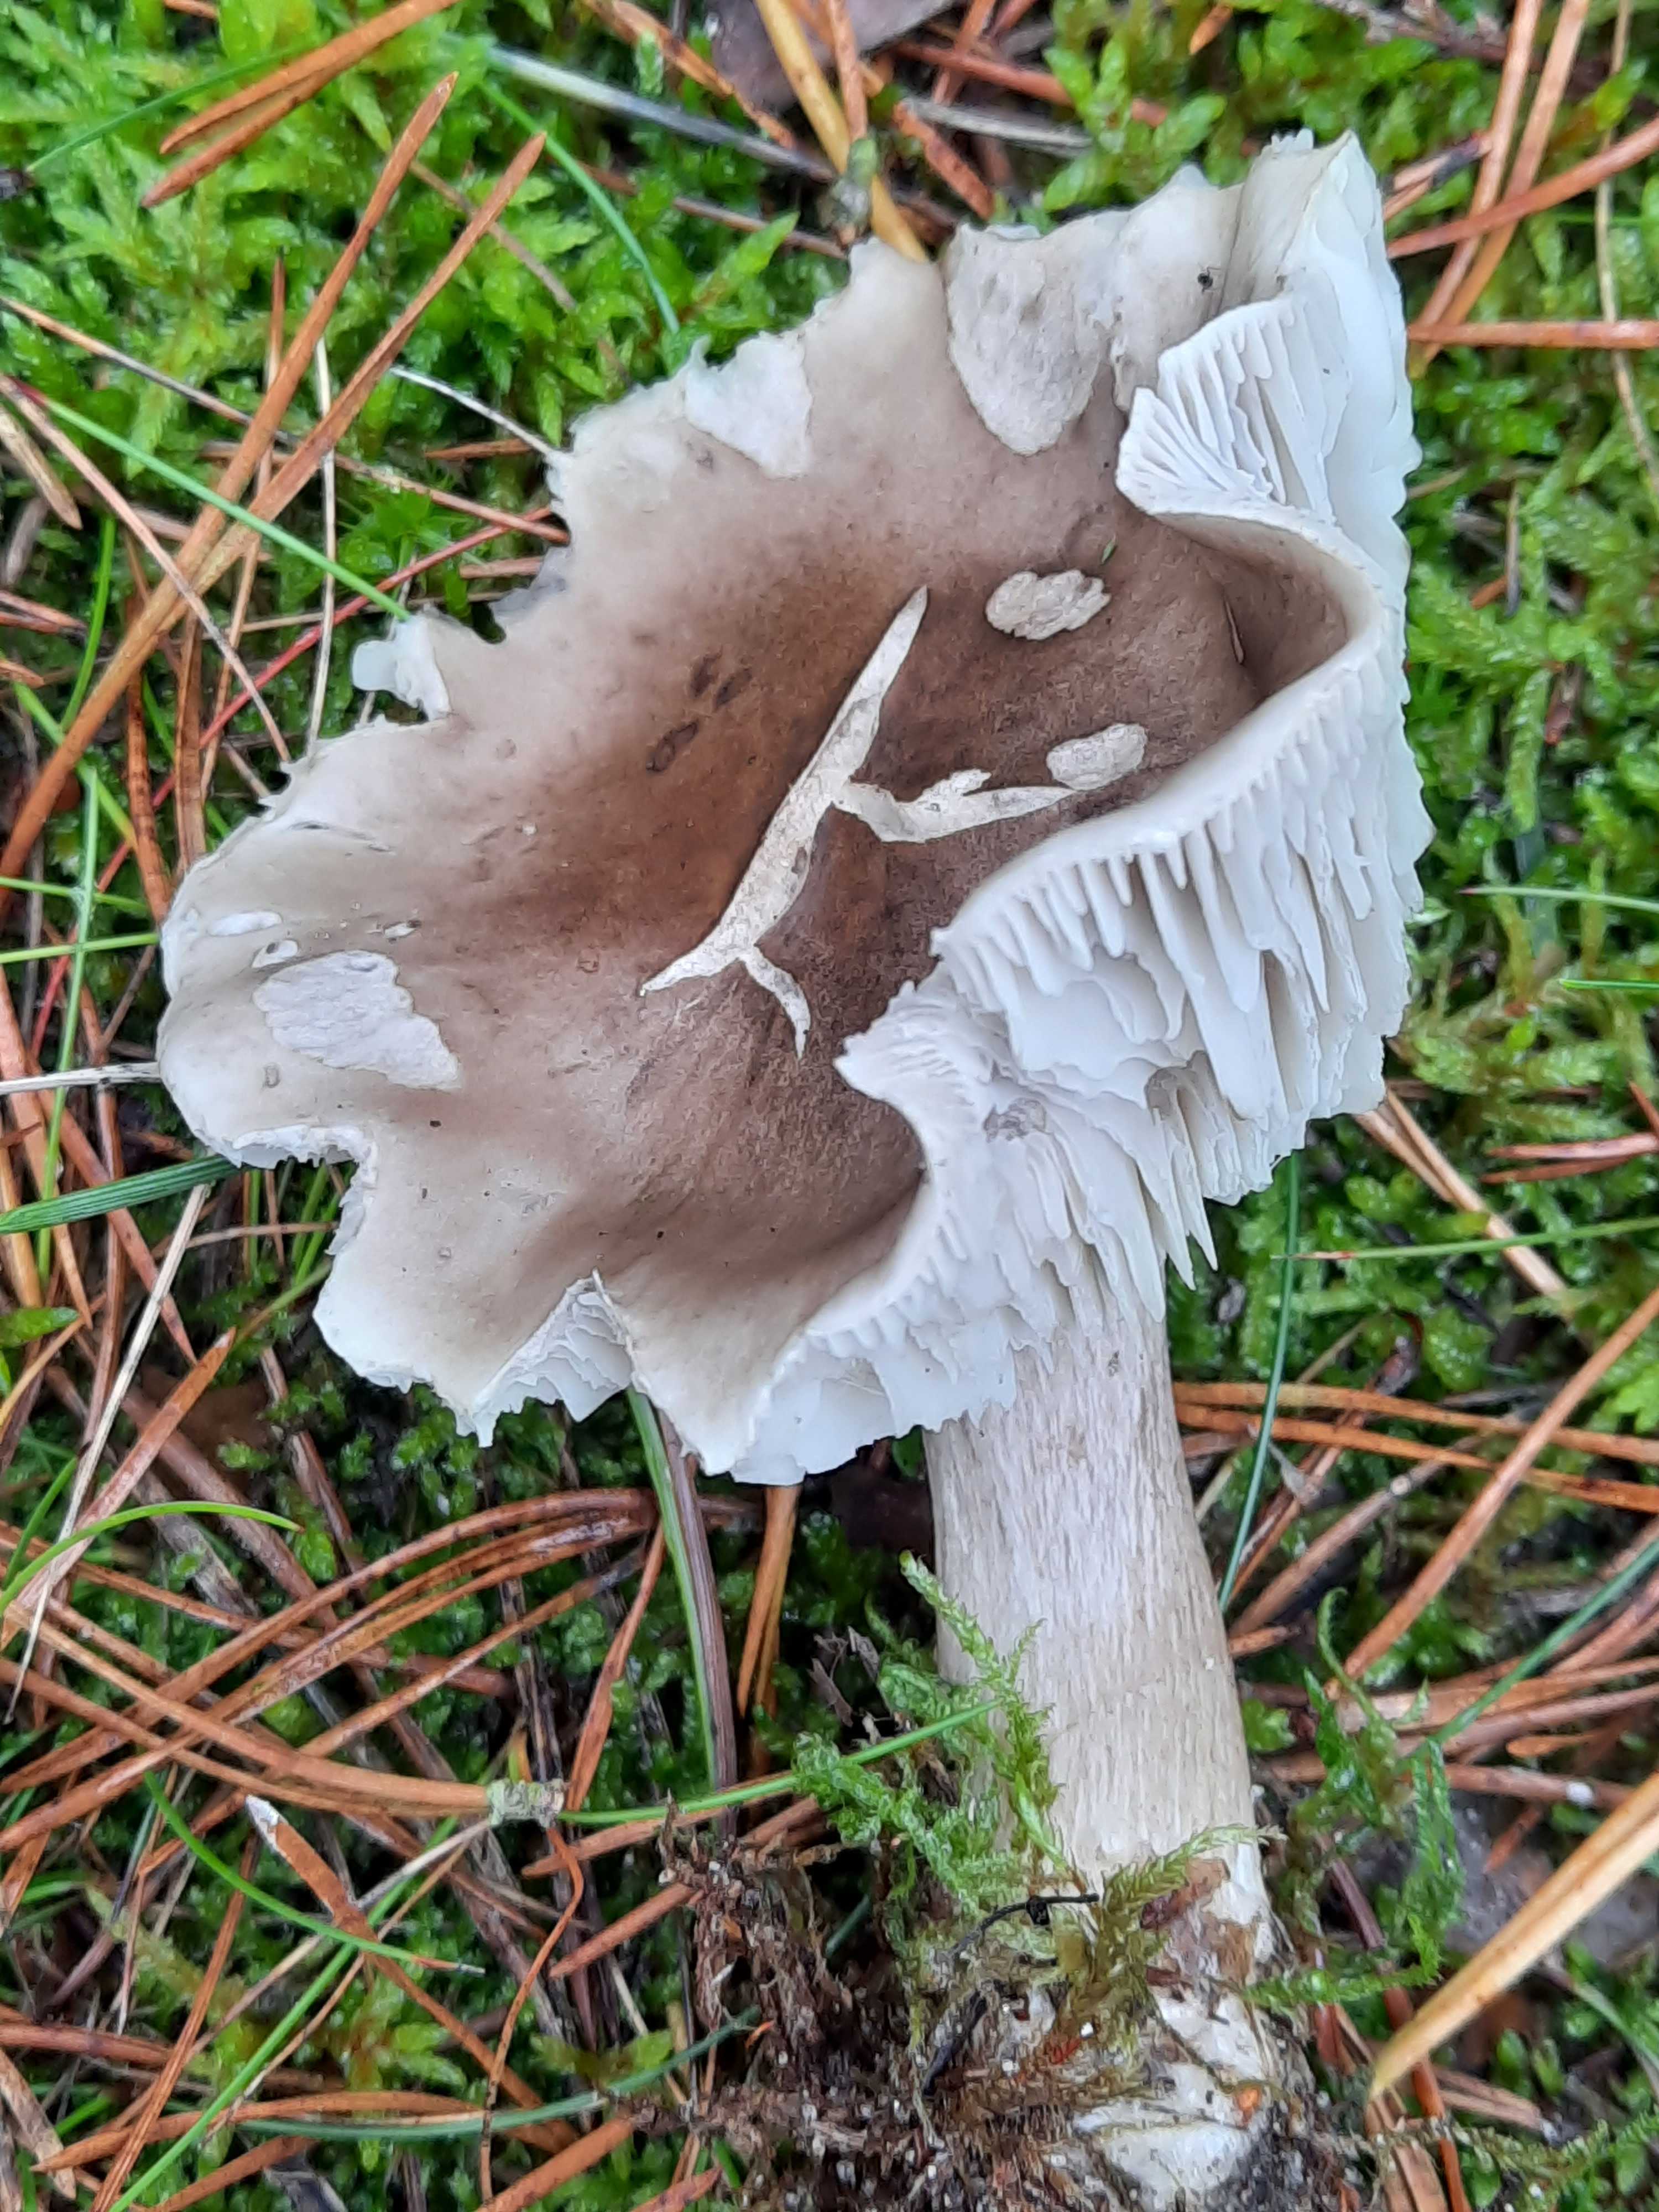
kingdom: Fungi
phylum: Basidiomycota
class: Agaricomycetes
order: Agaricales
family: Tricholomataceae
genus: Tricholoma
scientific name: Tricholoma sudum
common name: tør ridderhat
